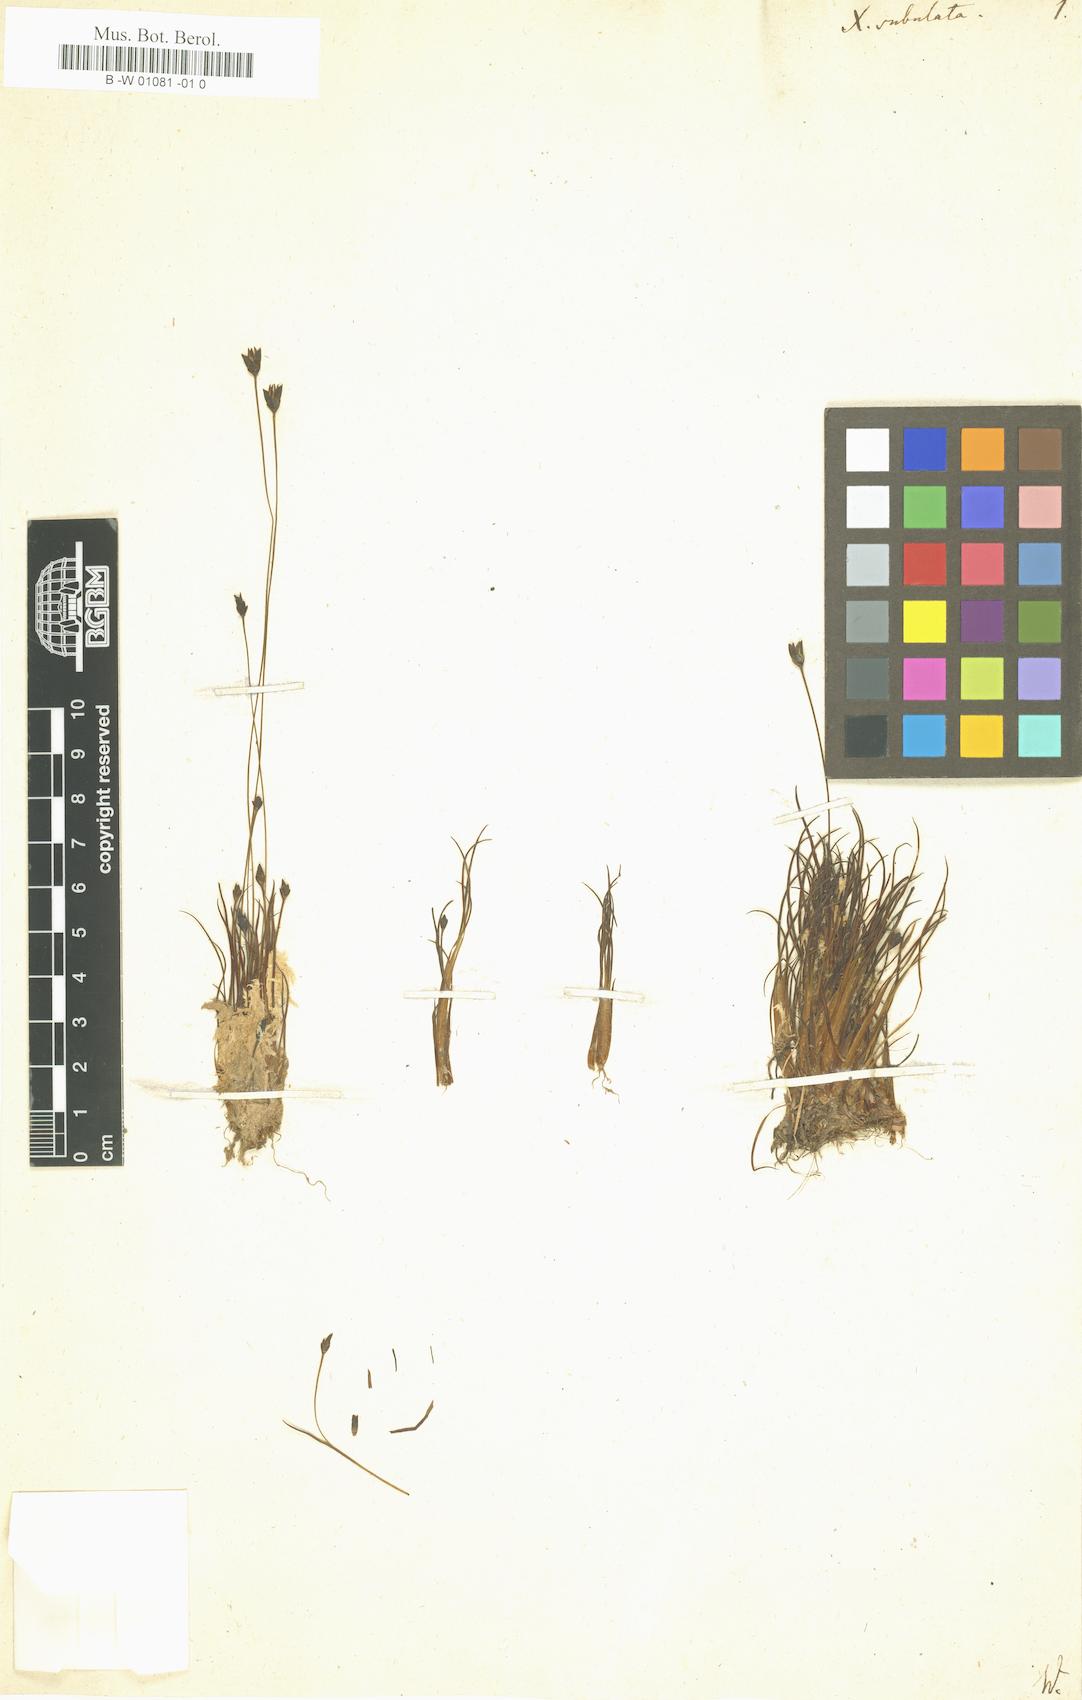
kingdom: Plantae
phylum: Tracheophyta
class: Liliopsida
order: Poales
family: Xyridaceae
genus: Xyris
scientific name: Xyris subulata
